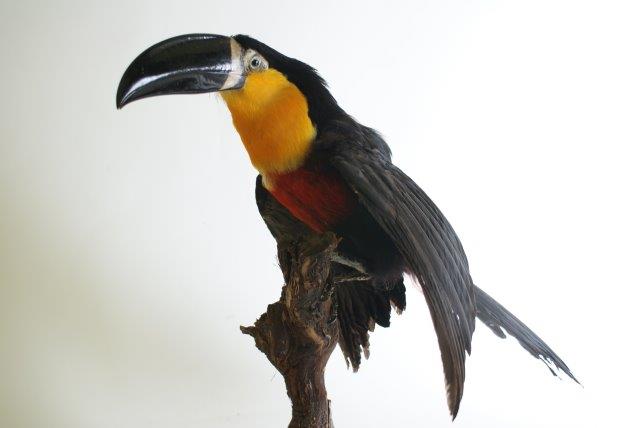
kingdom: Animalia
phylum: Chordata
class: Aves
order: Piciformes
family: Ramphastidae
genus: Ramphastos
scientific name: Ramphastos vitellinus
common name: Channel-billed toucan
